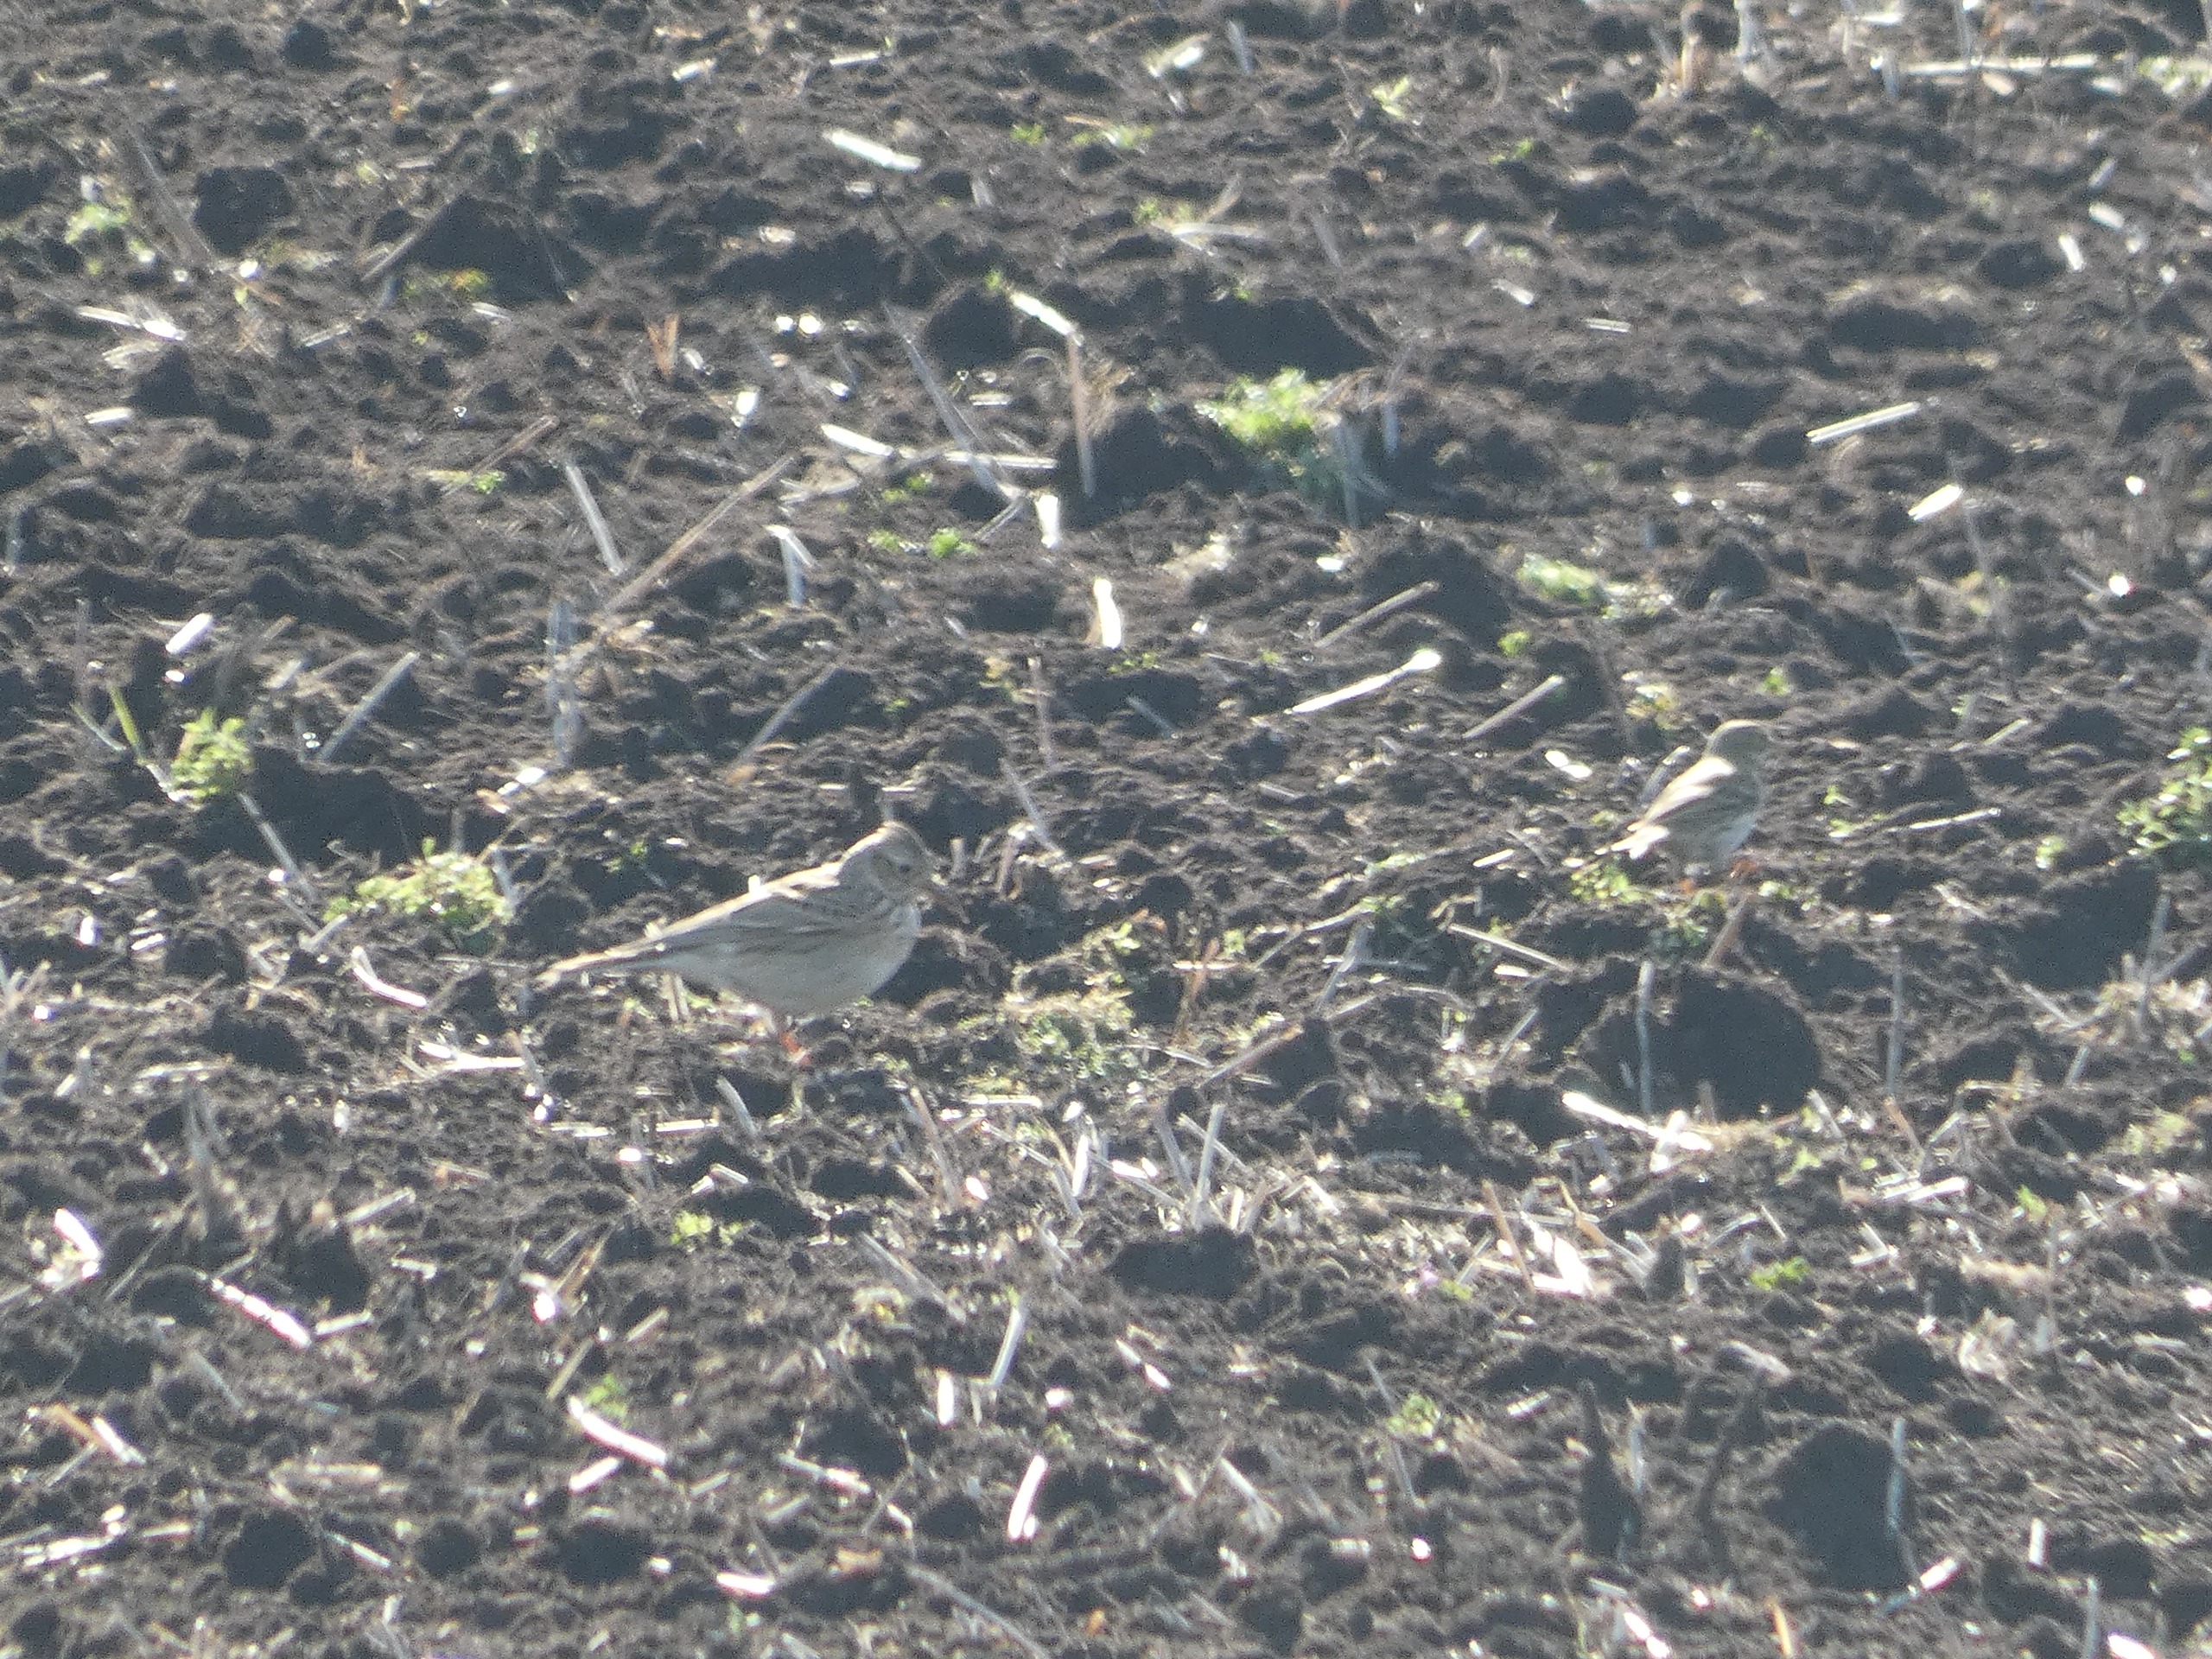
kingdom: Animalia
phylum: Chordata
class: Aves
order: Passeriformes
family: Alaudidae
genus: Alauda
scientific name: Alauda arvensis
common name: Sanglærke
